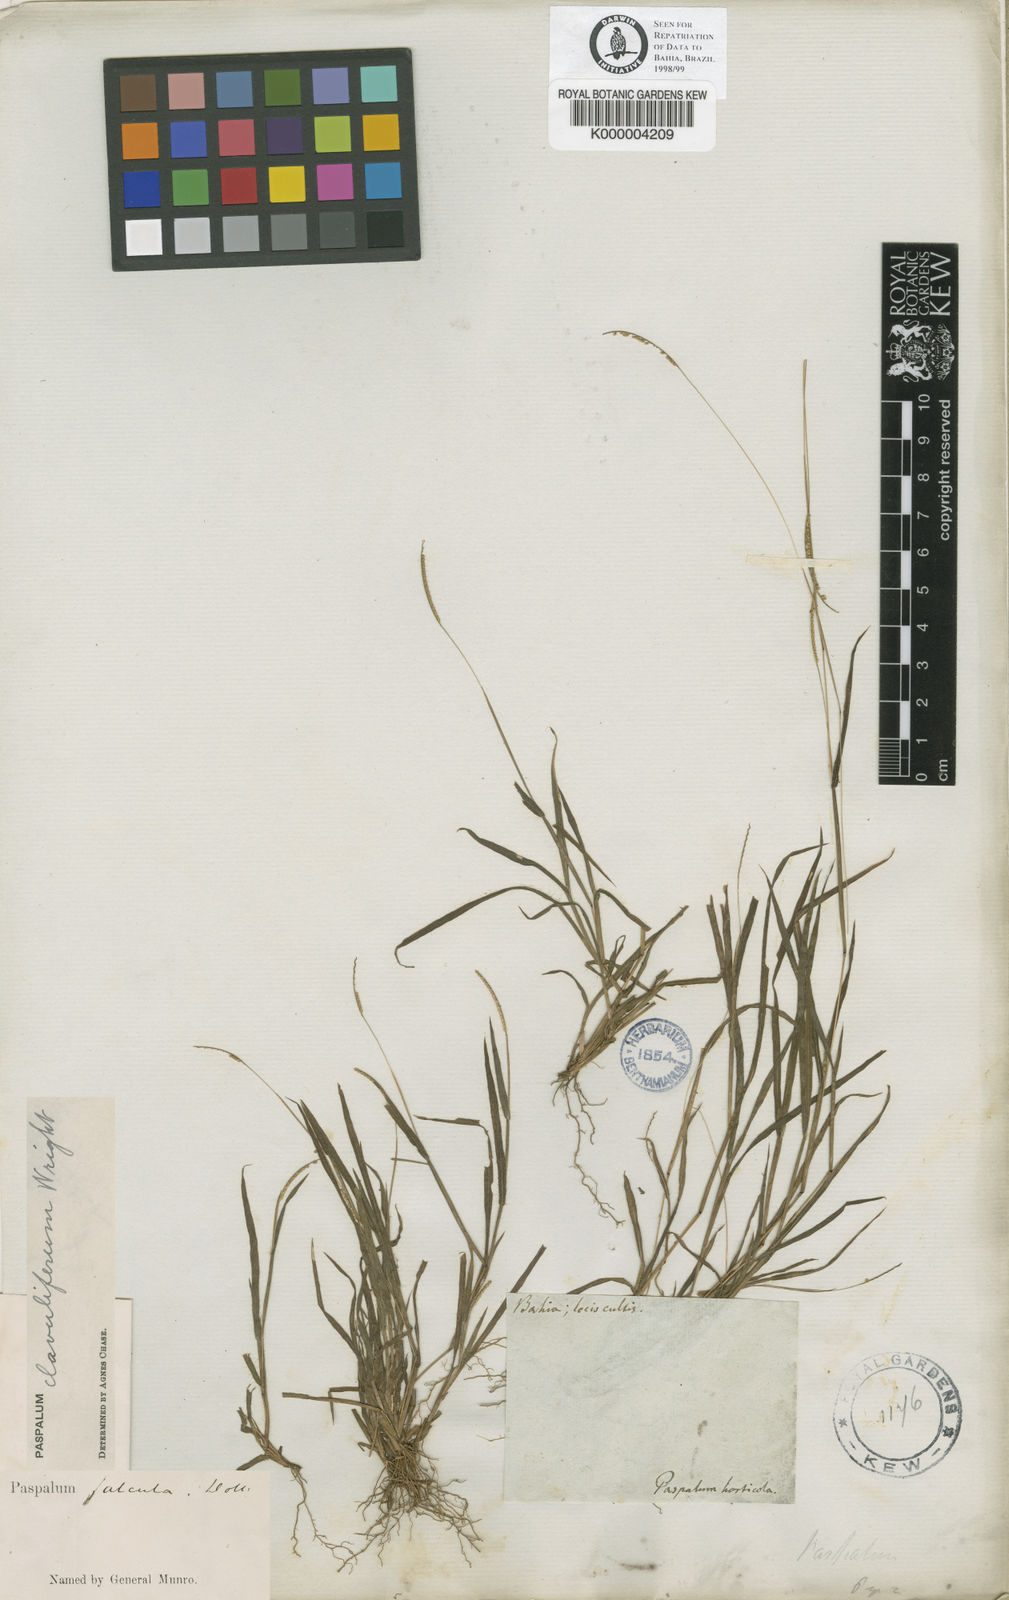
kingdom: Plantae
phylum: Tracheophyta
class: Liliopsida
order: Poales
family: Poaceae
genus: Paspalum
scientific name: Paspalum clavuliferum
